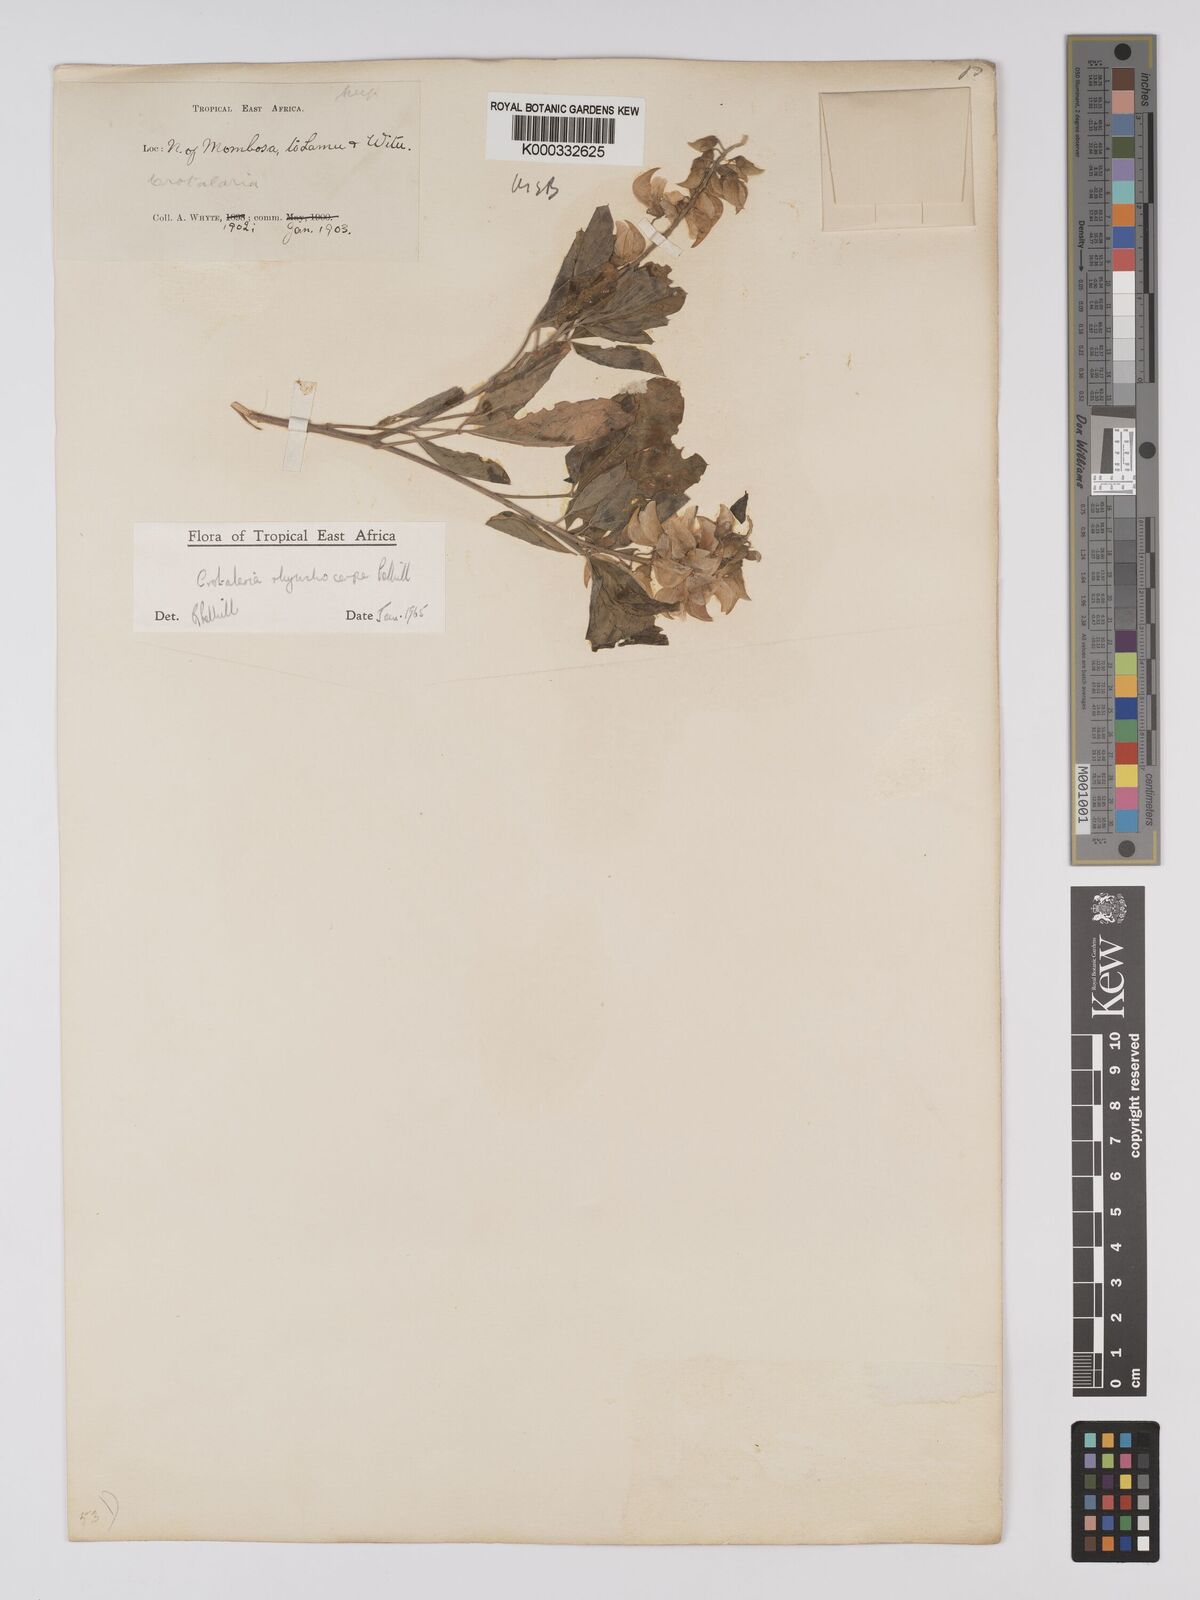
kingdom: Plantae
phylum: Tracheophyta
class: Magnoliopsida
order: Fabales
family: Fabaceae
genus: Crotalaria
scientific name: Crotalaria rhynchocarpa
